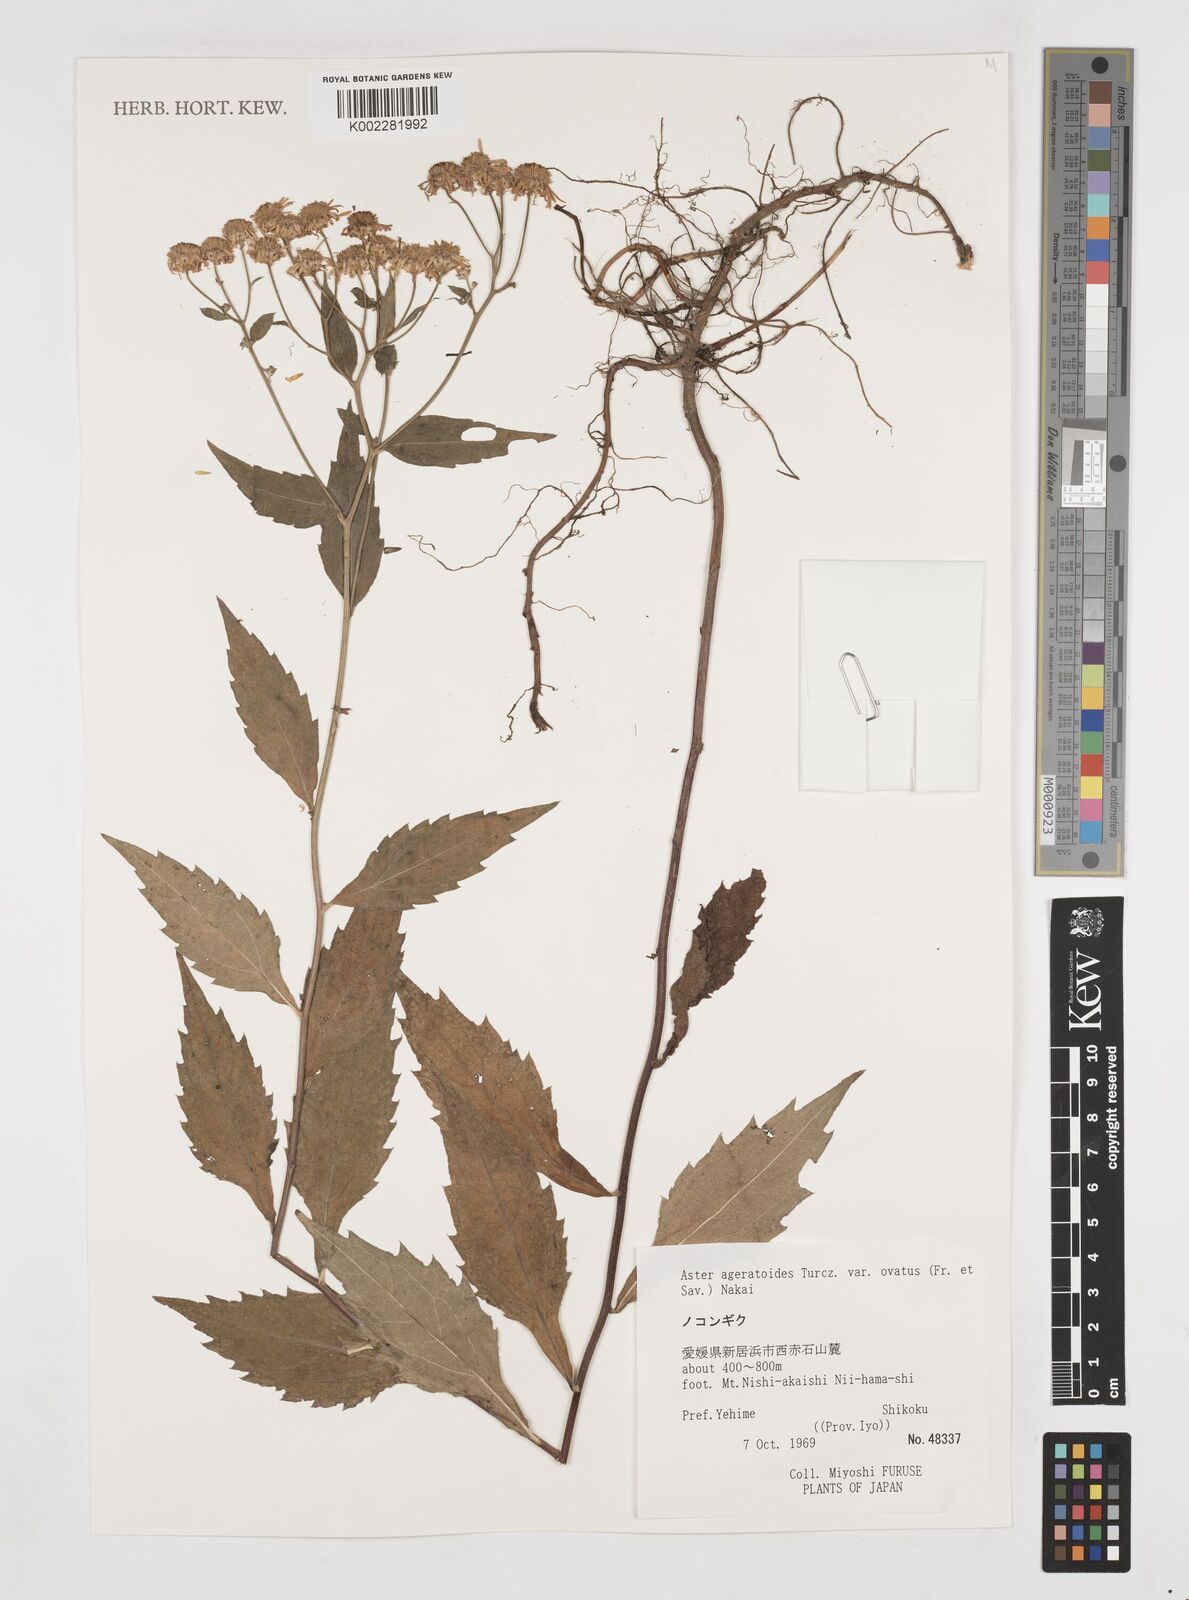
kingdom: Plantae
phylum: Tracheophyta
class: Magnoliopsida
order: Asterales
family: Asteraceae
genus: Galatella
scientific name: Galatella sedifolia
